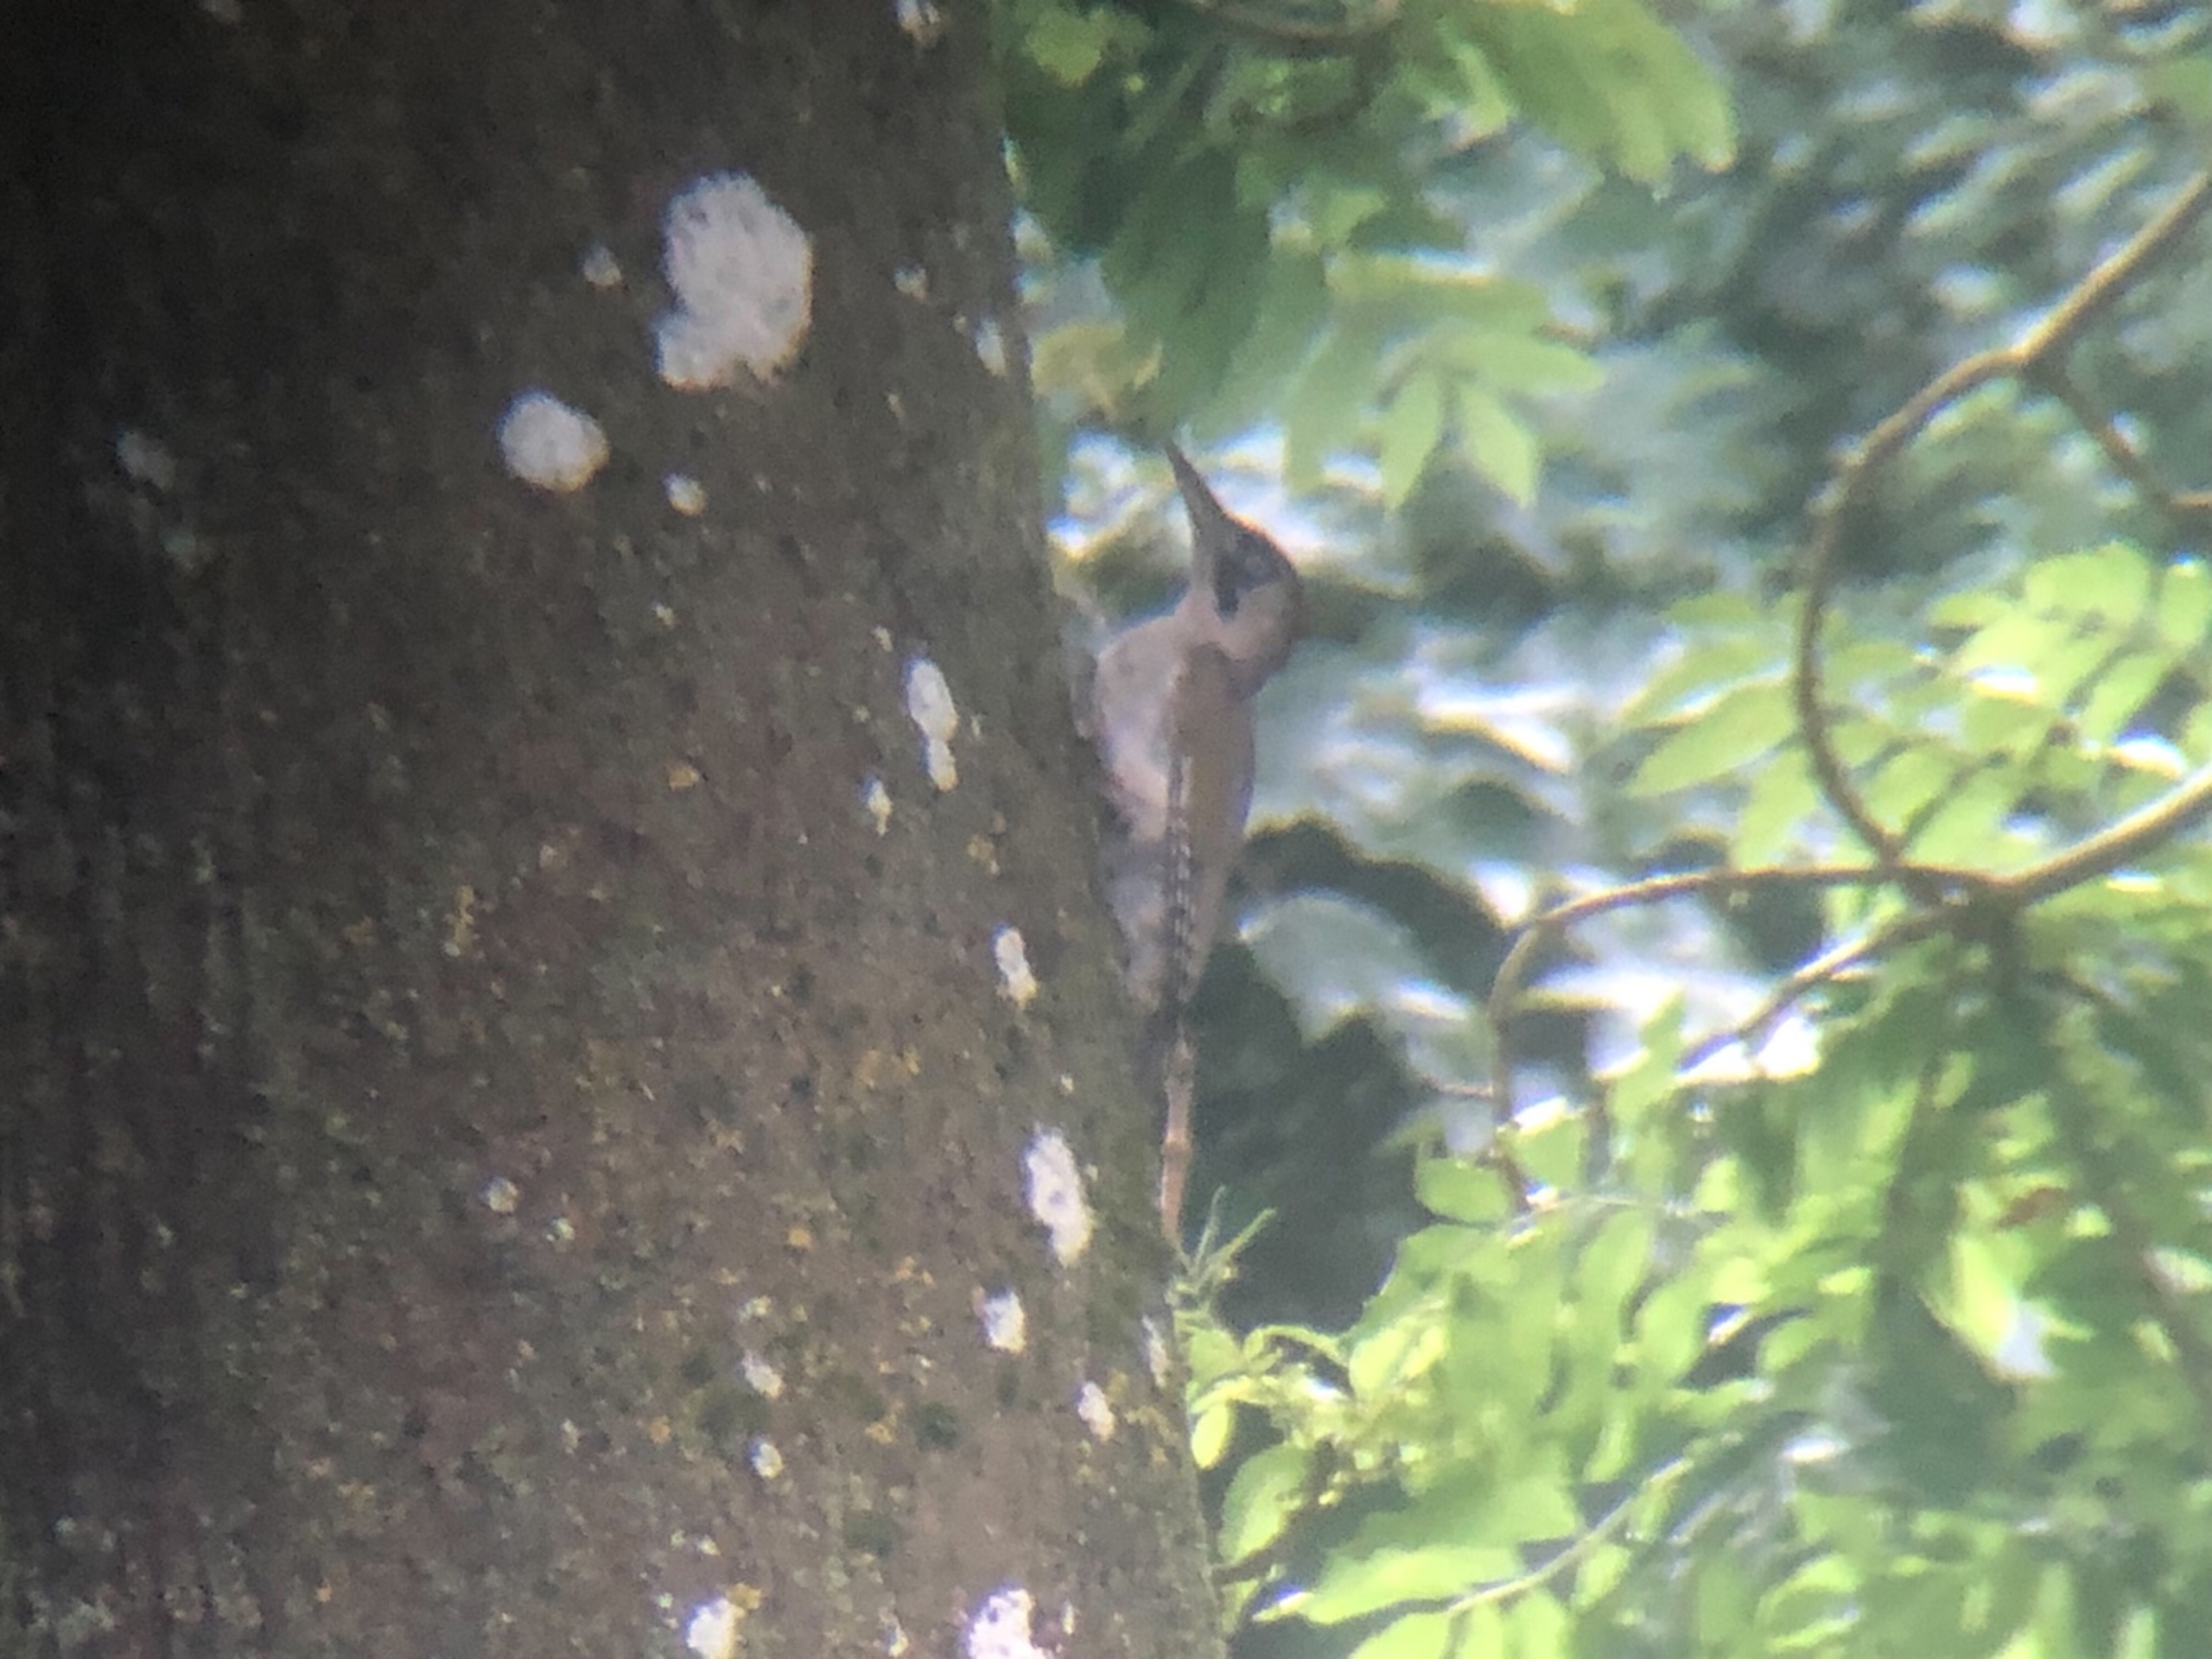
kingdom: Animalia
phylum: Chordata
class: Aves
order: Piciformes
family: Picidae
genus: Picus
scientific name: Picus viridis
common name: Grønspætte
